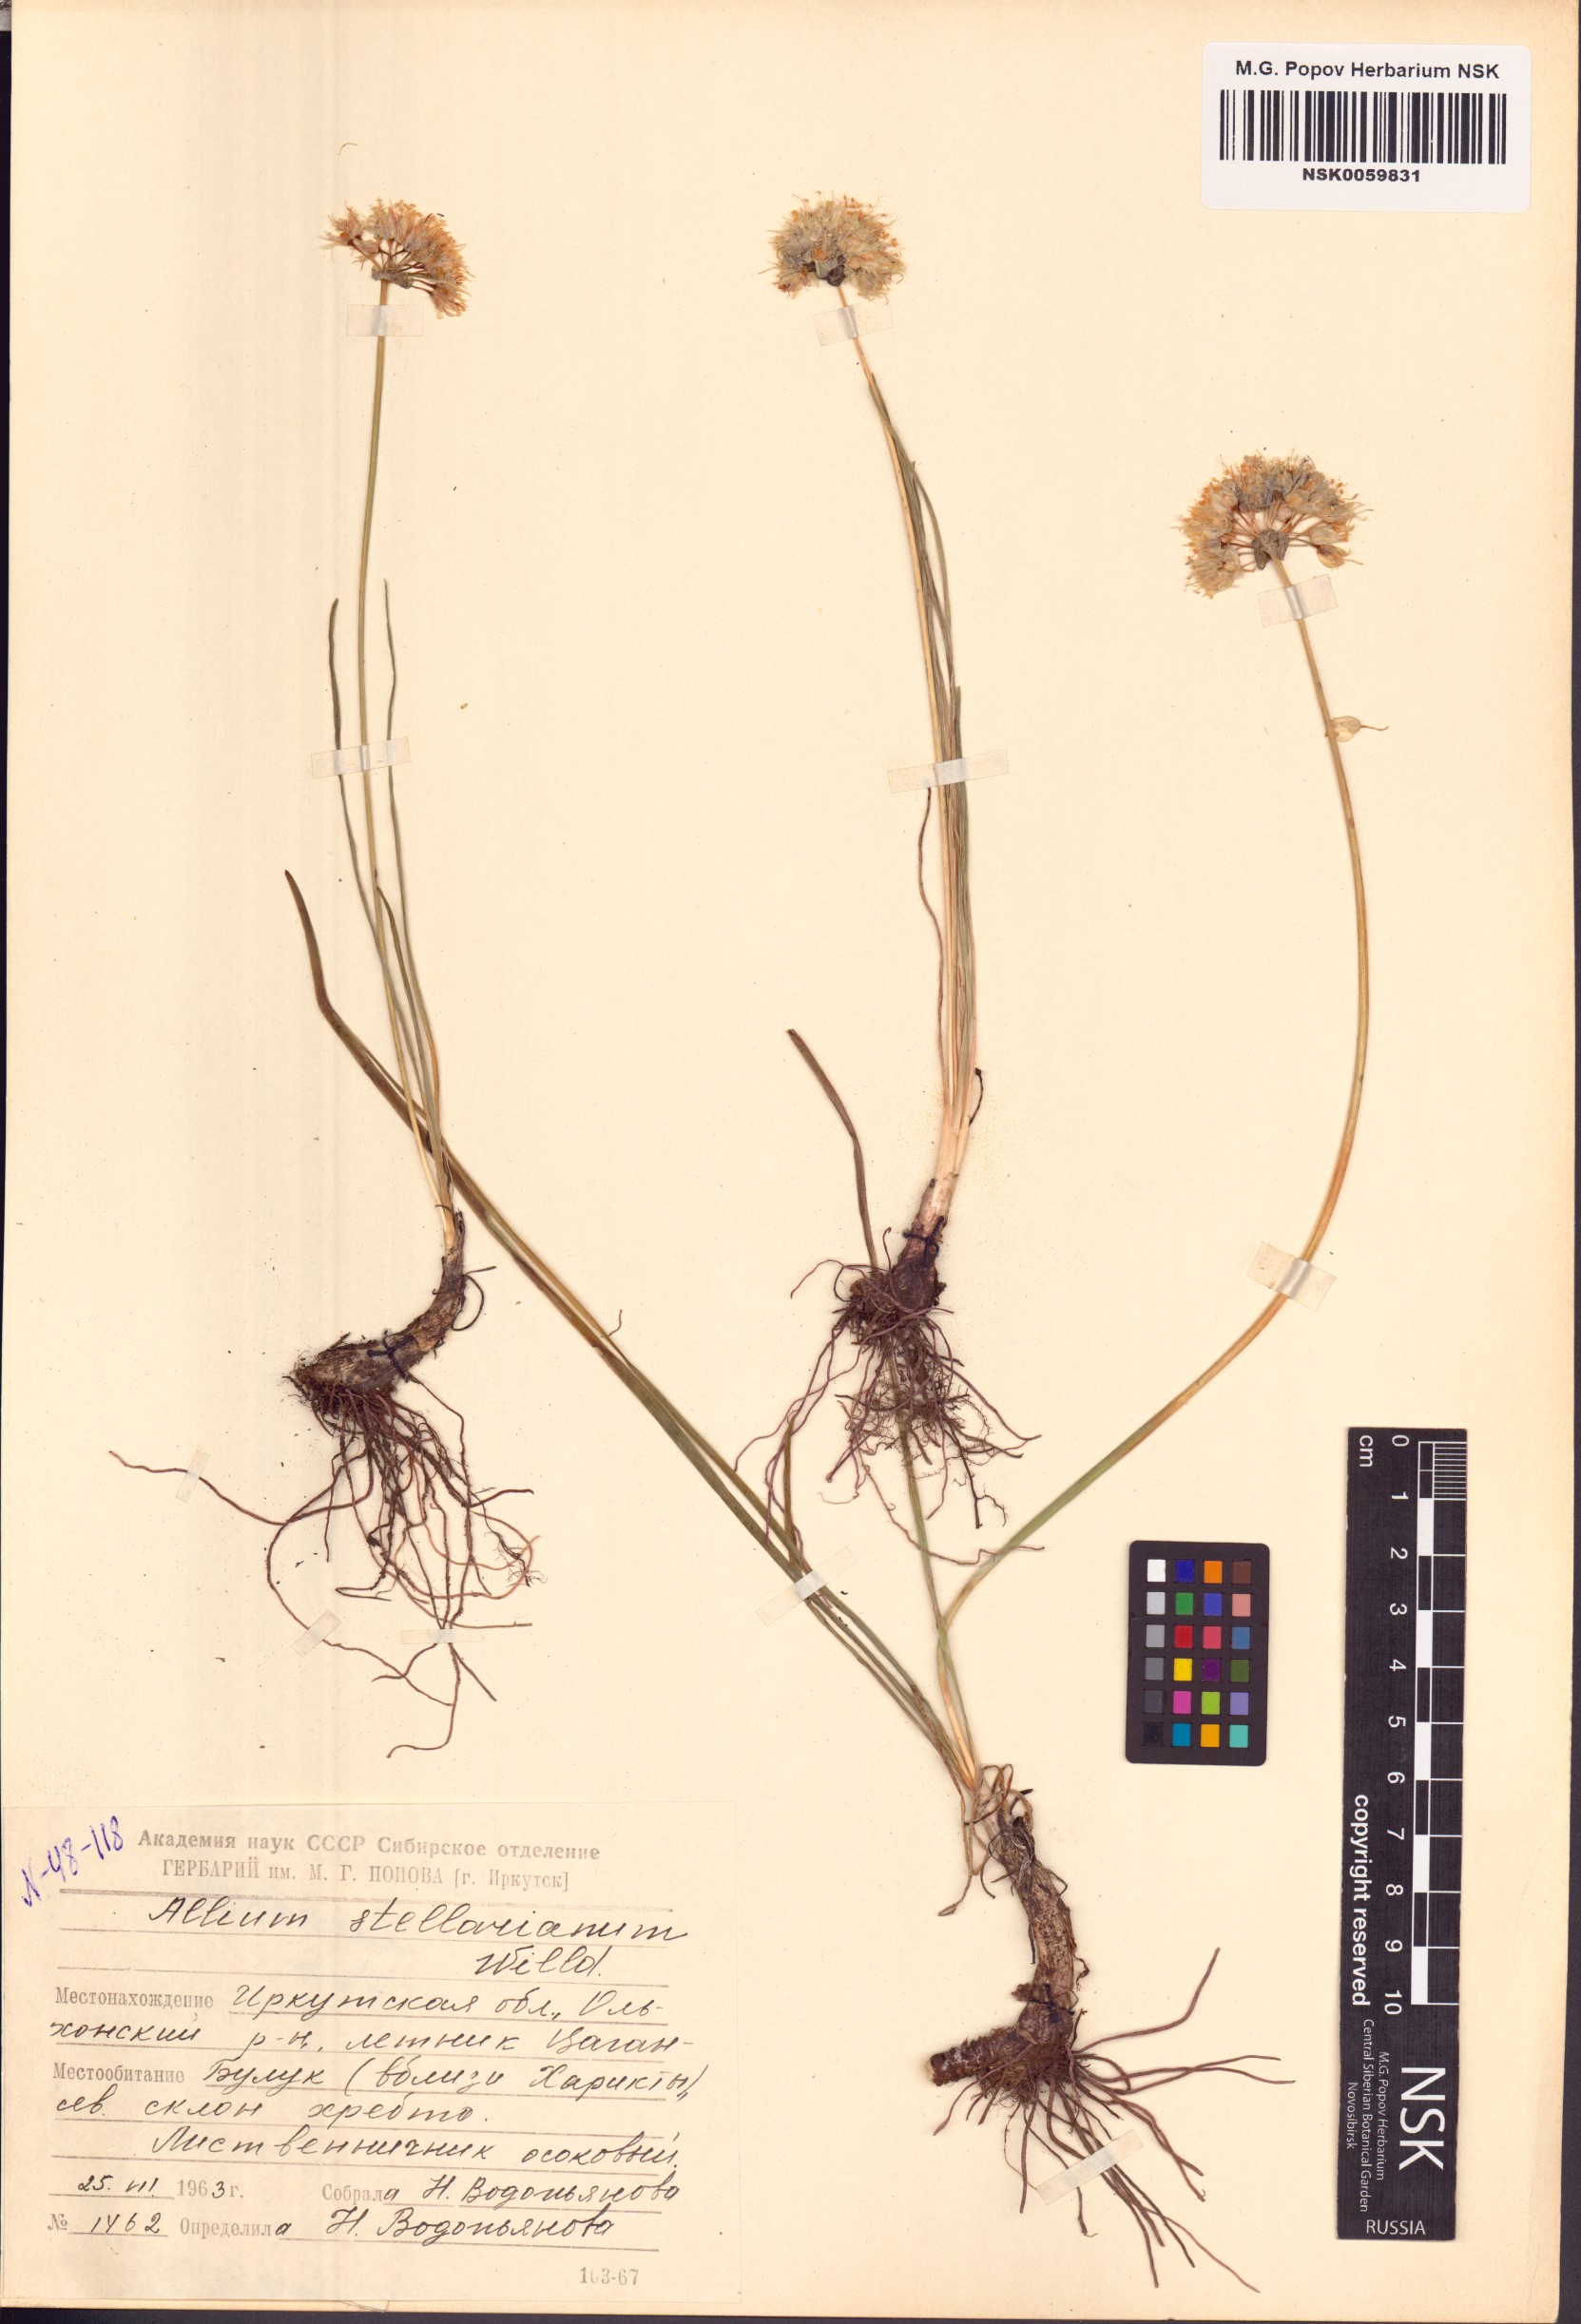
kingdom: Plantae
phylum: Tracheophyta
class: Liliopsida
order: Asparagales
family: Amaryllidaceae
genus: Allium
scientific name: Allium stellerianum
